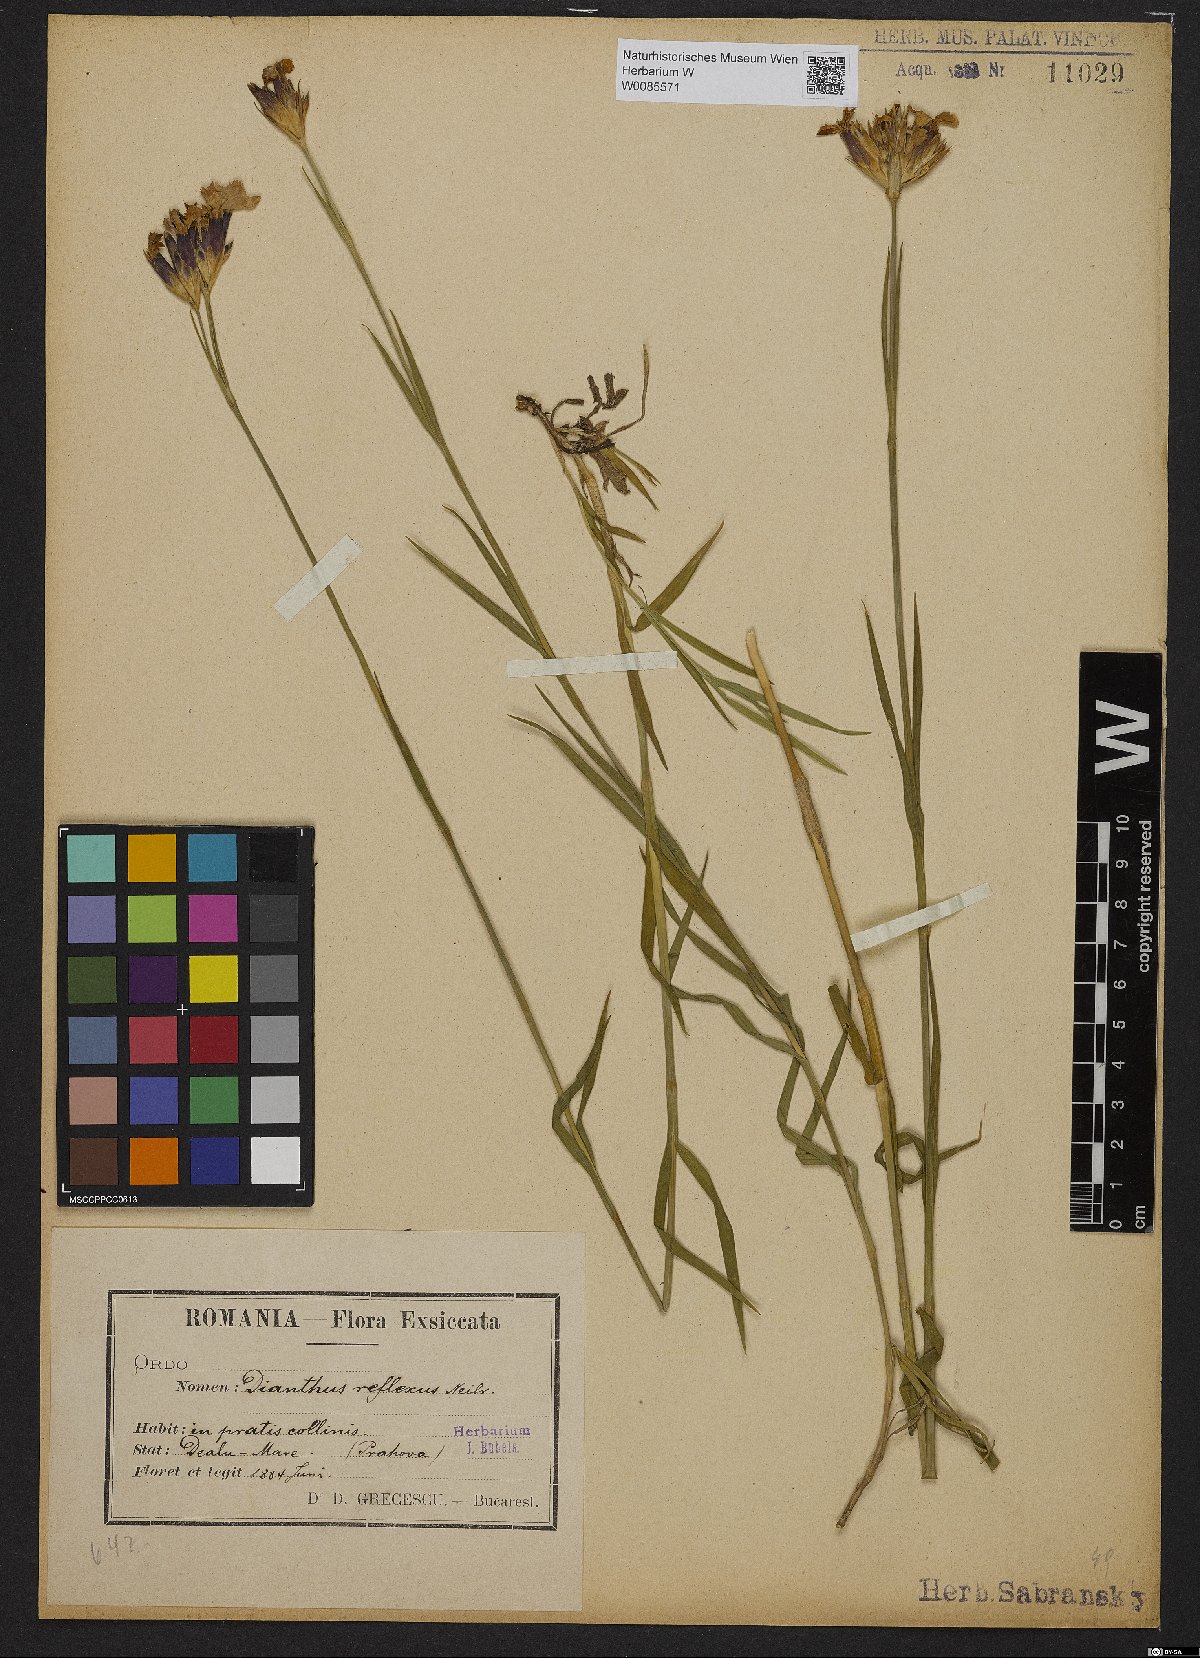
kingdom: Plantae
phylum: Tracheophyta
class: Magnoliopsida
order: Caryophyllales
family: Caryophyllaceae
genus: Dianthus
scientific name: Dianthus
